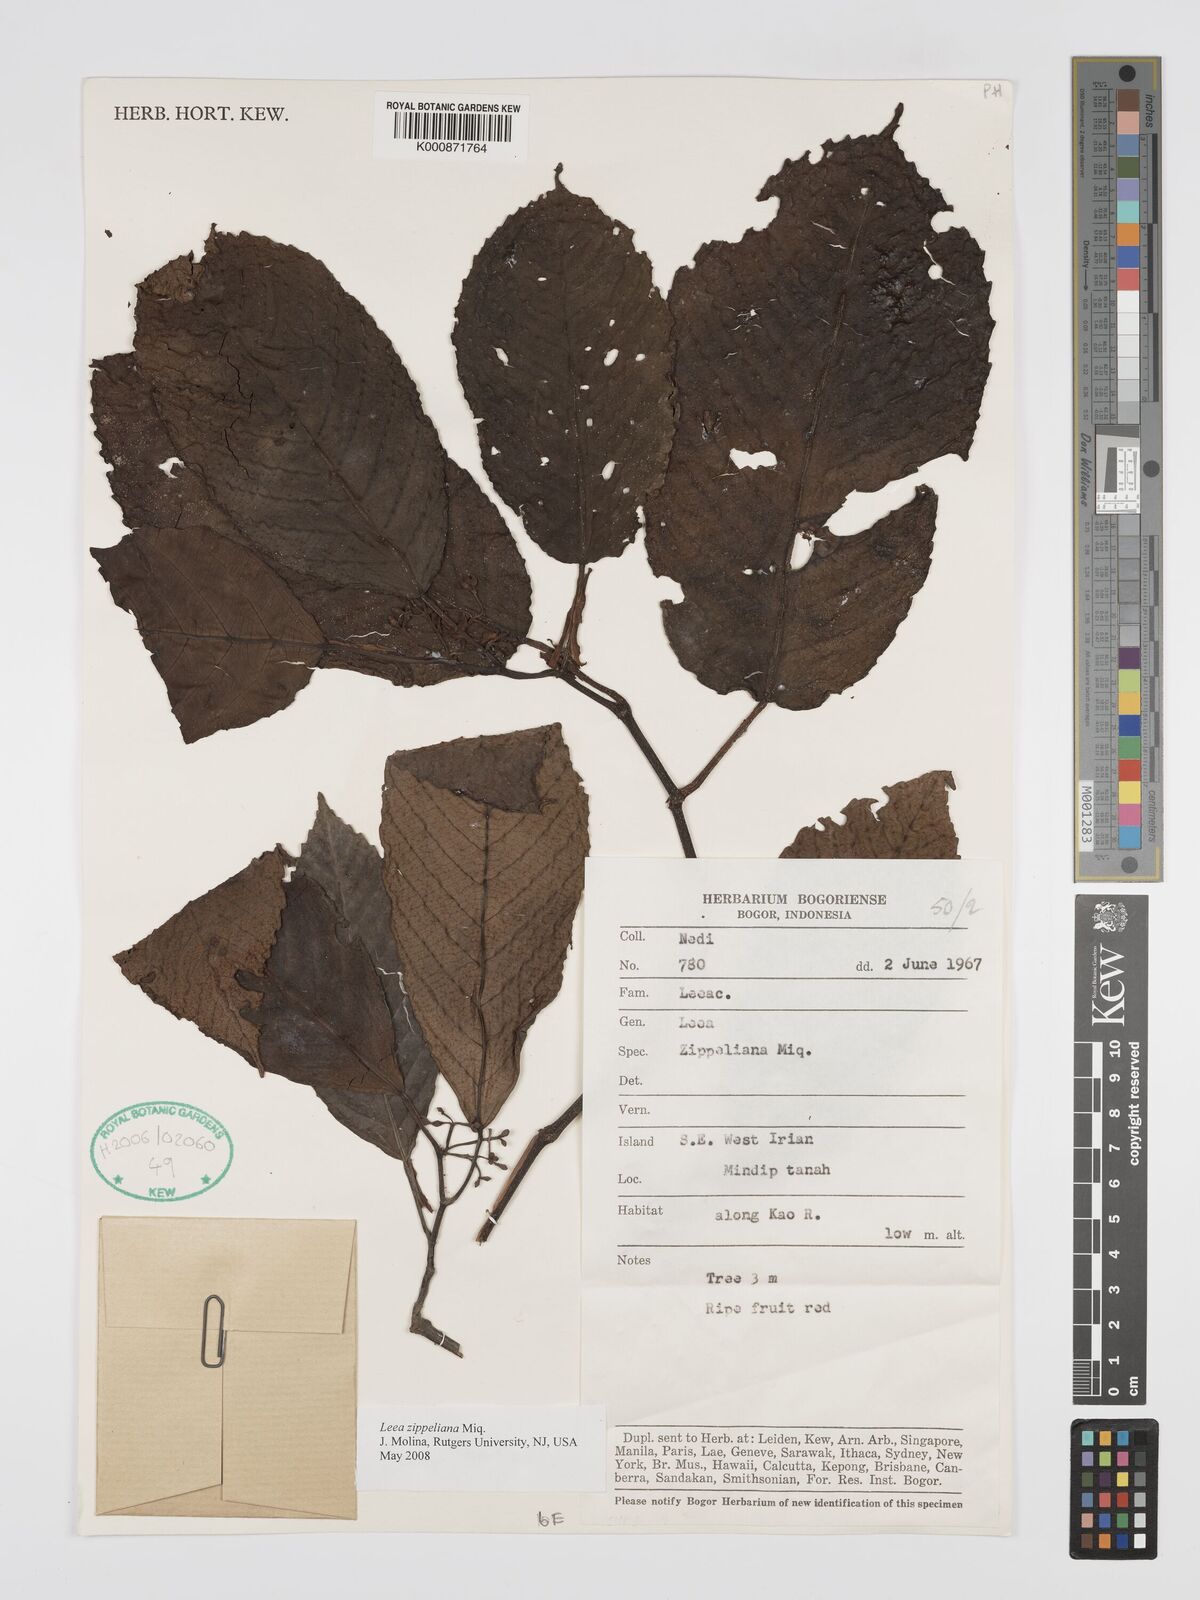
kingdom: Plantae
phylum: Tracheophyta
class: Magnoliopsida
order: Vitales
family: Vitaceae
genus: Leea
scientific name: Leea zippeliana
